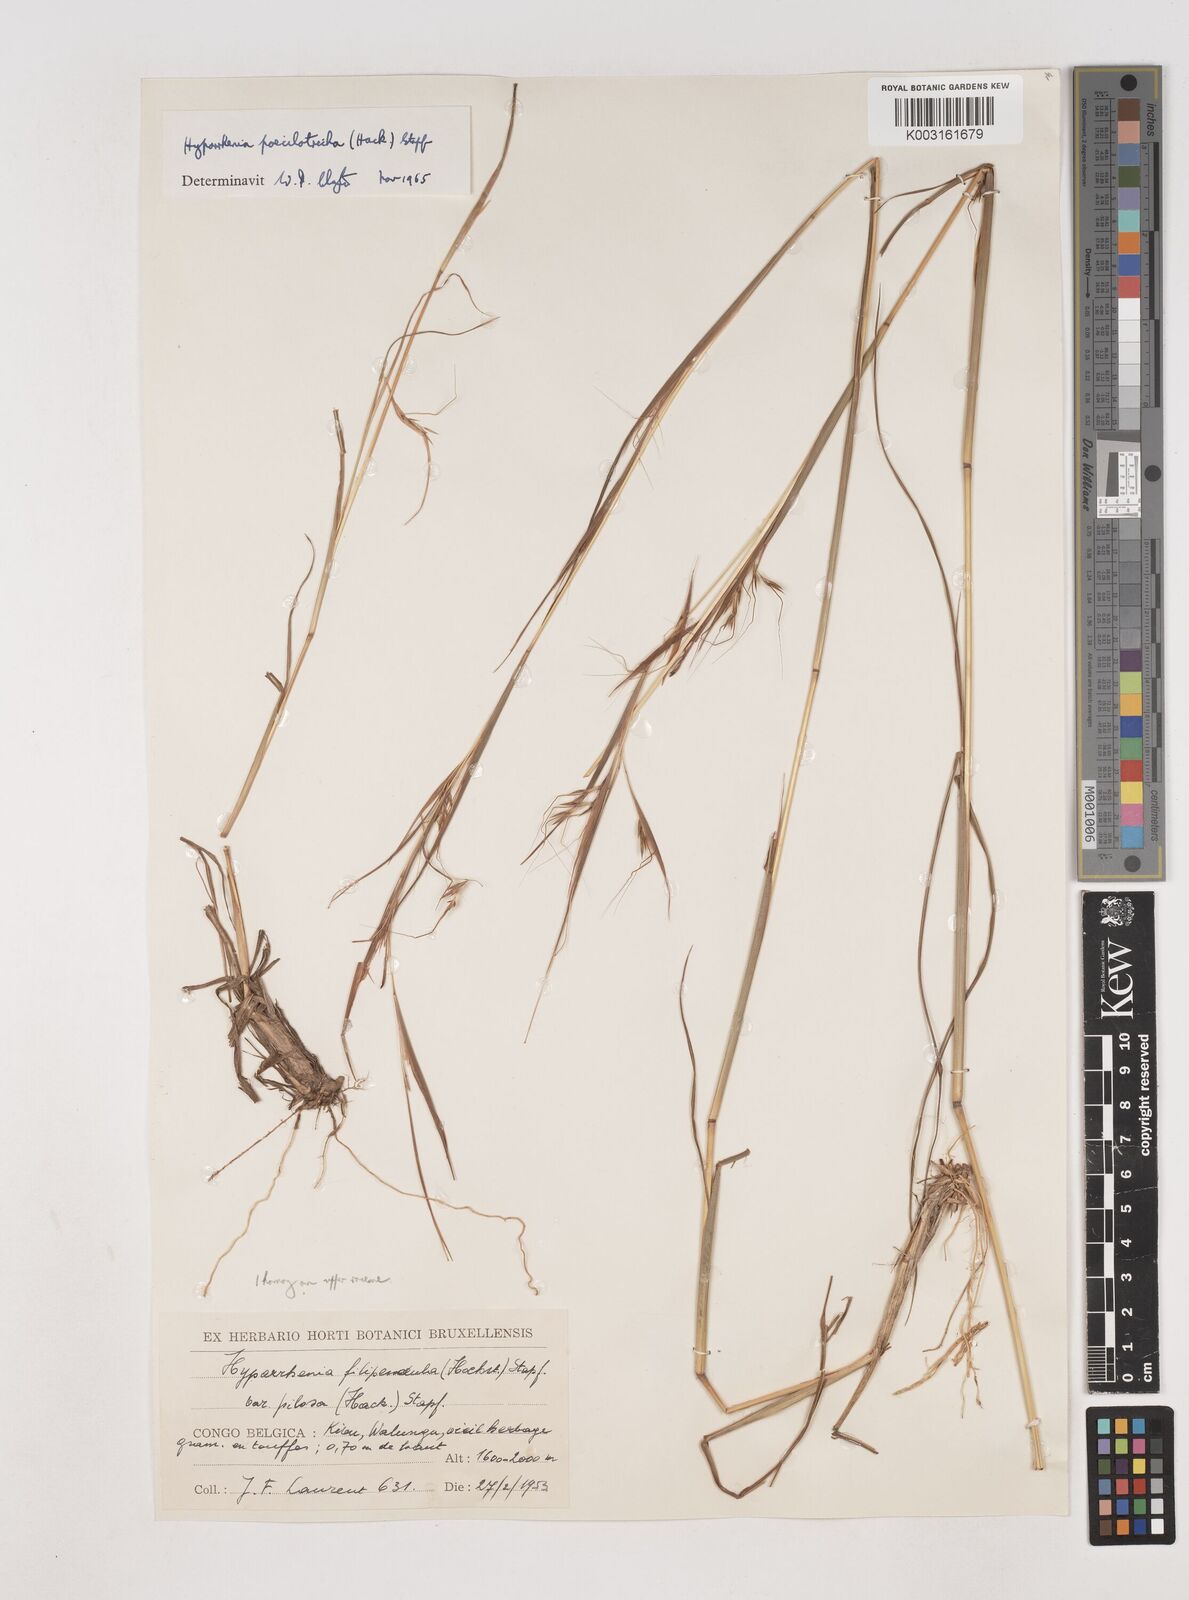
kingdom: Plantae
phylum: Tracheophyta
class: Liliopsida
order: Poales
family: Poaceae
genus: Hyparrhenia
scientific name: Hyparrhenia poecilotricha
